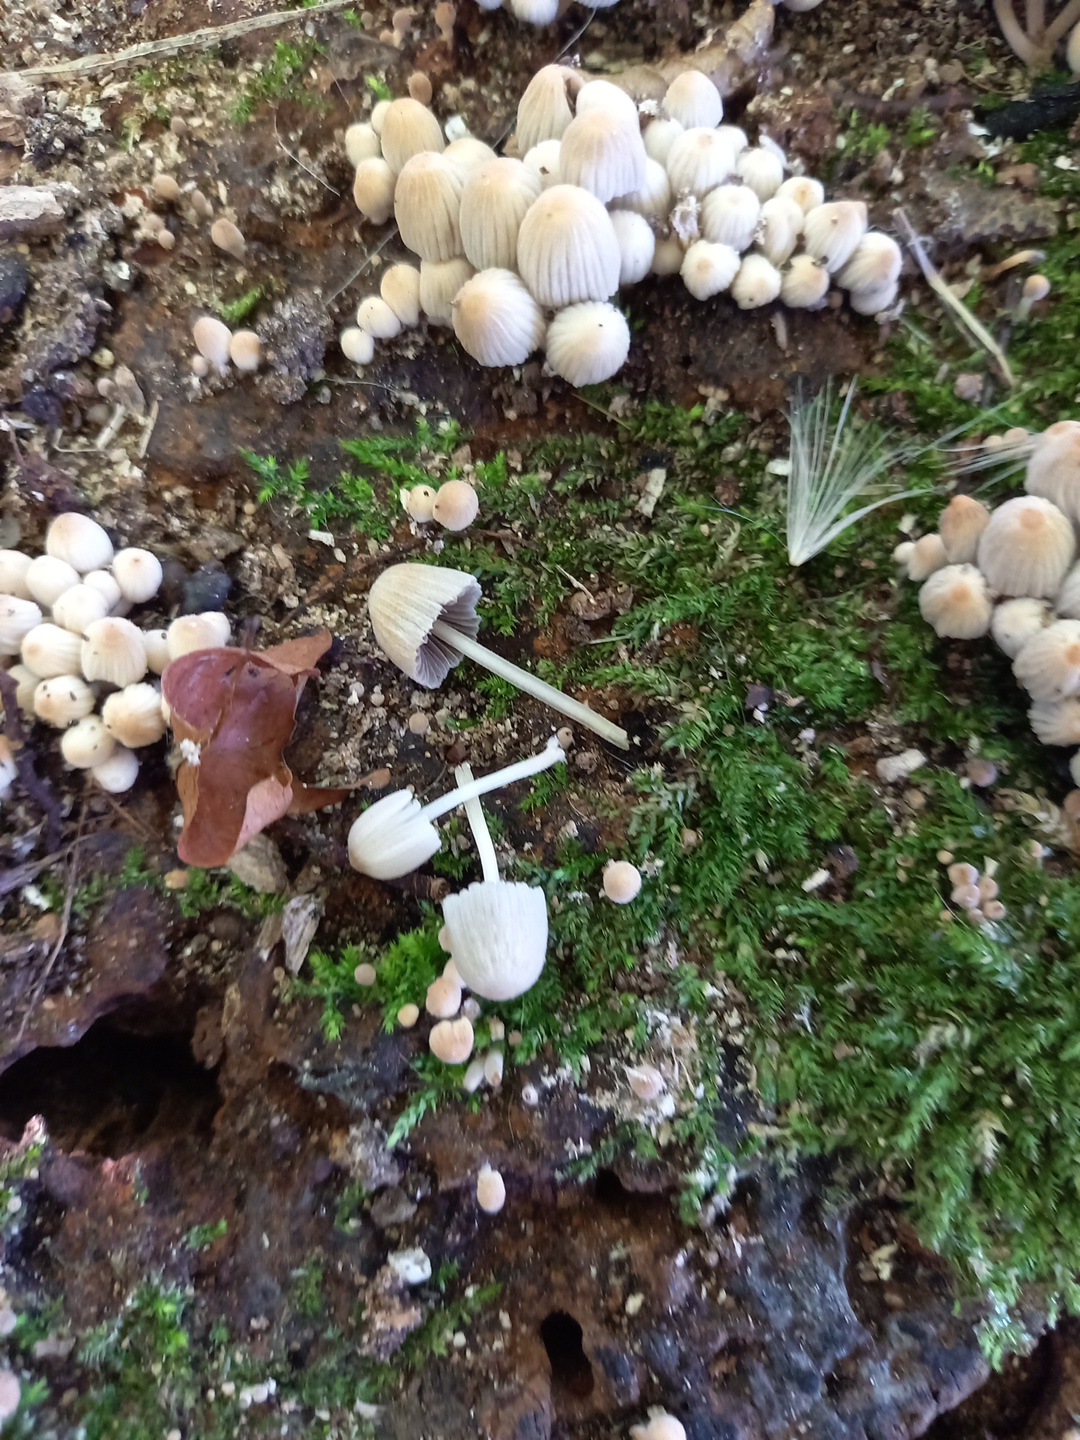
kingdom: Fungi
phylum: Basidiomycota
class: Agaricomycetes
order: Agaricales
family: Psathyrellaceae
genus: Coprinellus
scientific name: Coprinellus disseminatus
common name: bredsået blækhat
